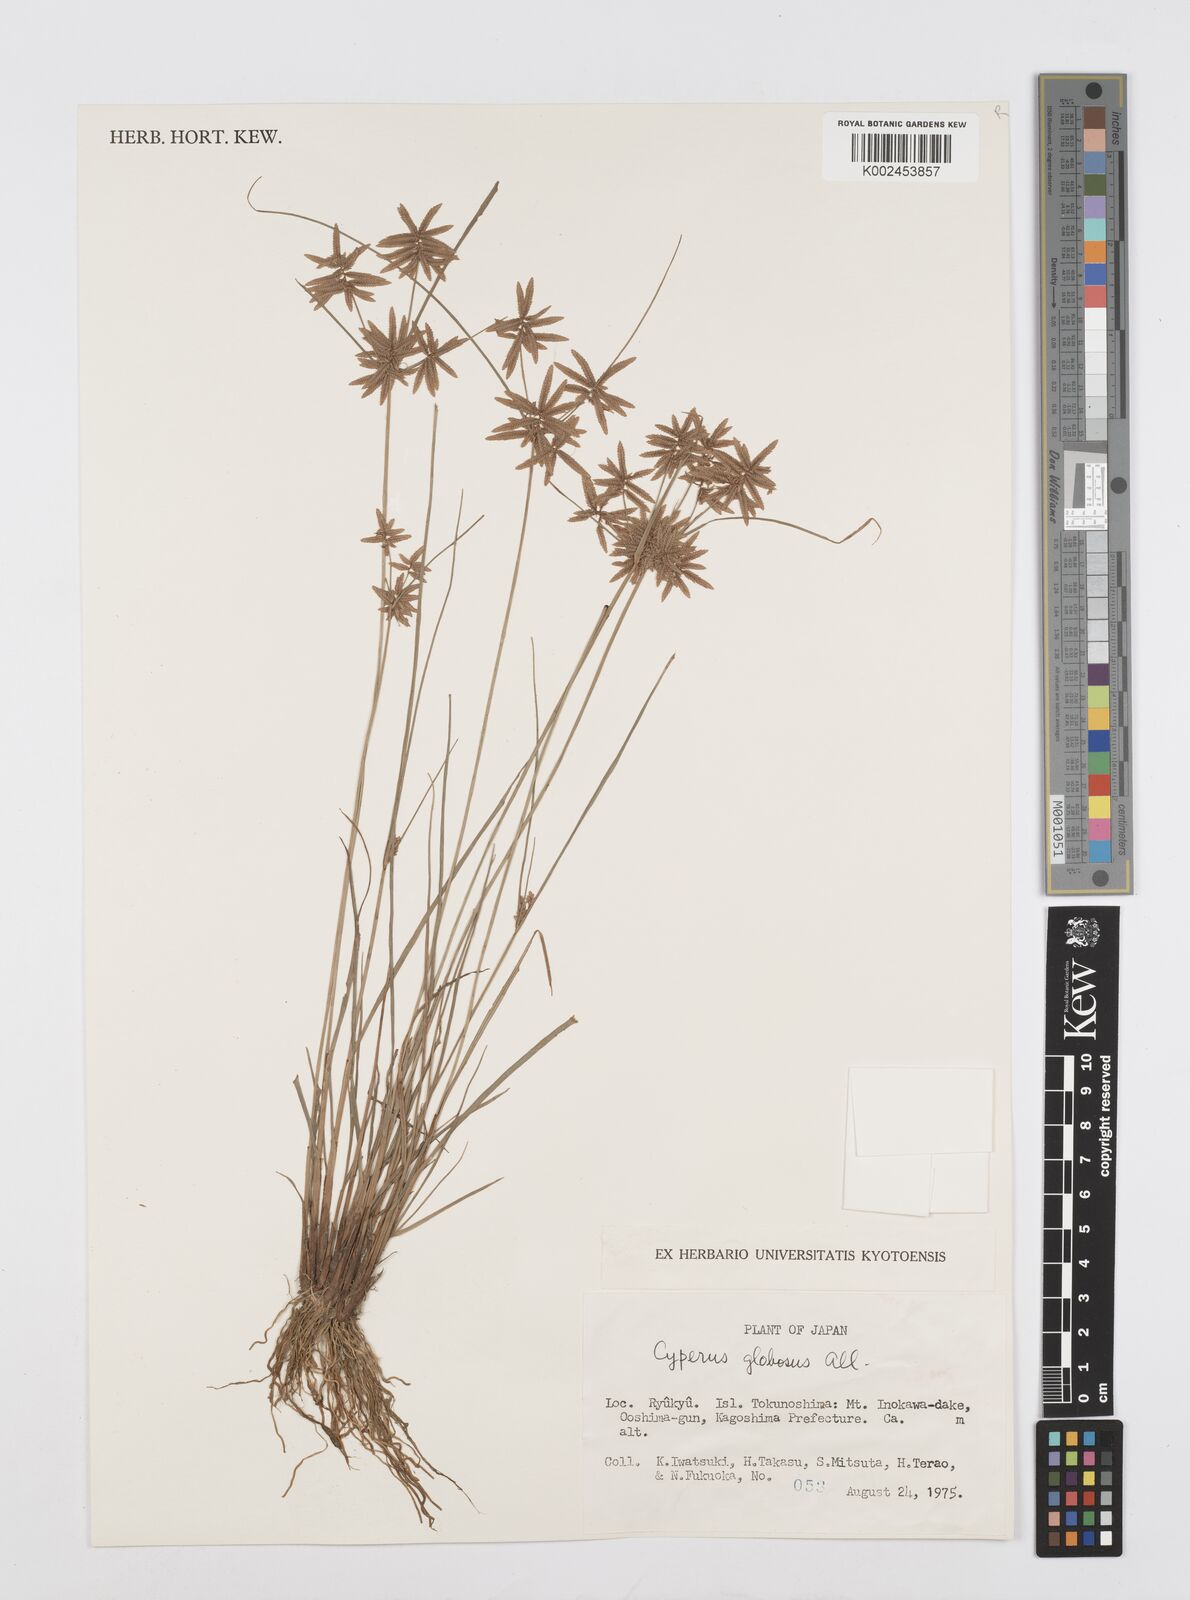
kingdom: Plantae
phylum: Tracheophyta
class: Liliopsida
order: Poales
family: Cyperaceae
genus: Cyperus
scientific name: Cyperus flavidus
